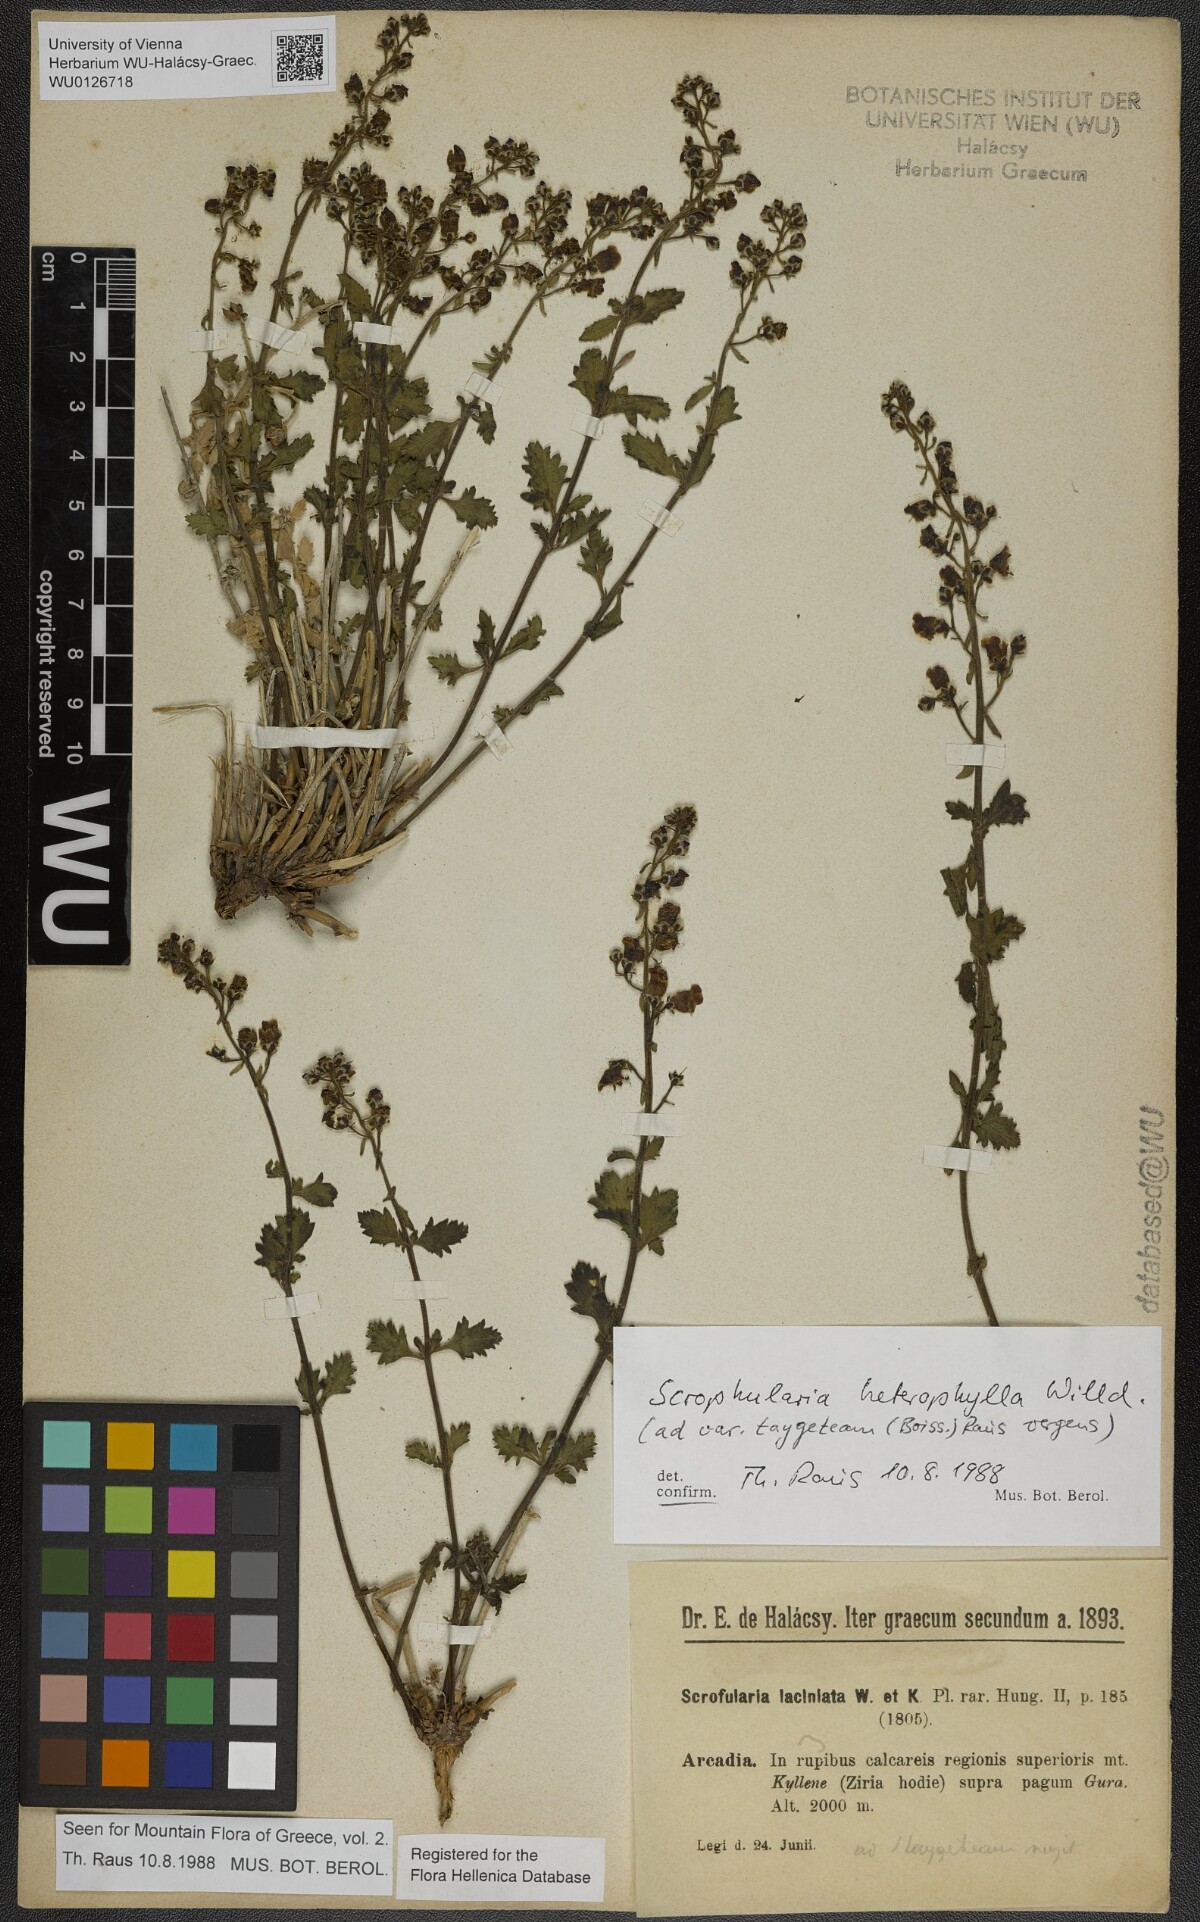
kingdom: Plantae
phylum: Tracheophyta
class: Magnoliopsida
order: Lamiales
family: Scrophulariaceae
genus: Scrophularia
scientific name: Scrophularia heterophylla
